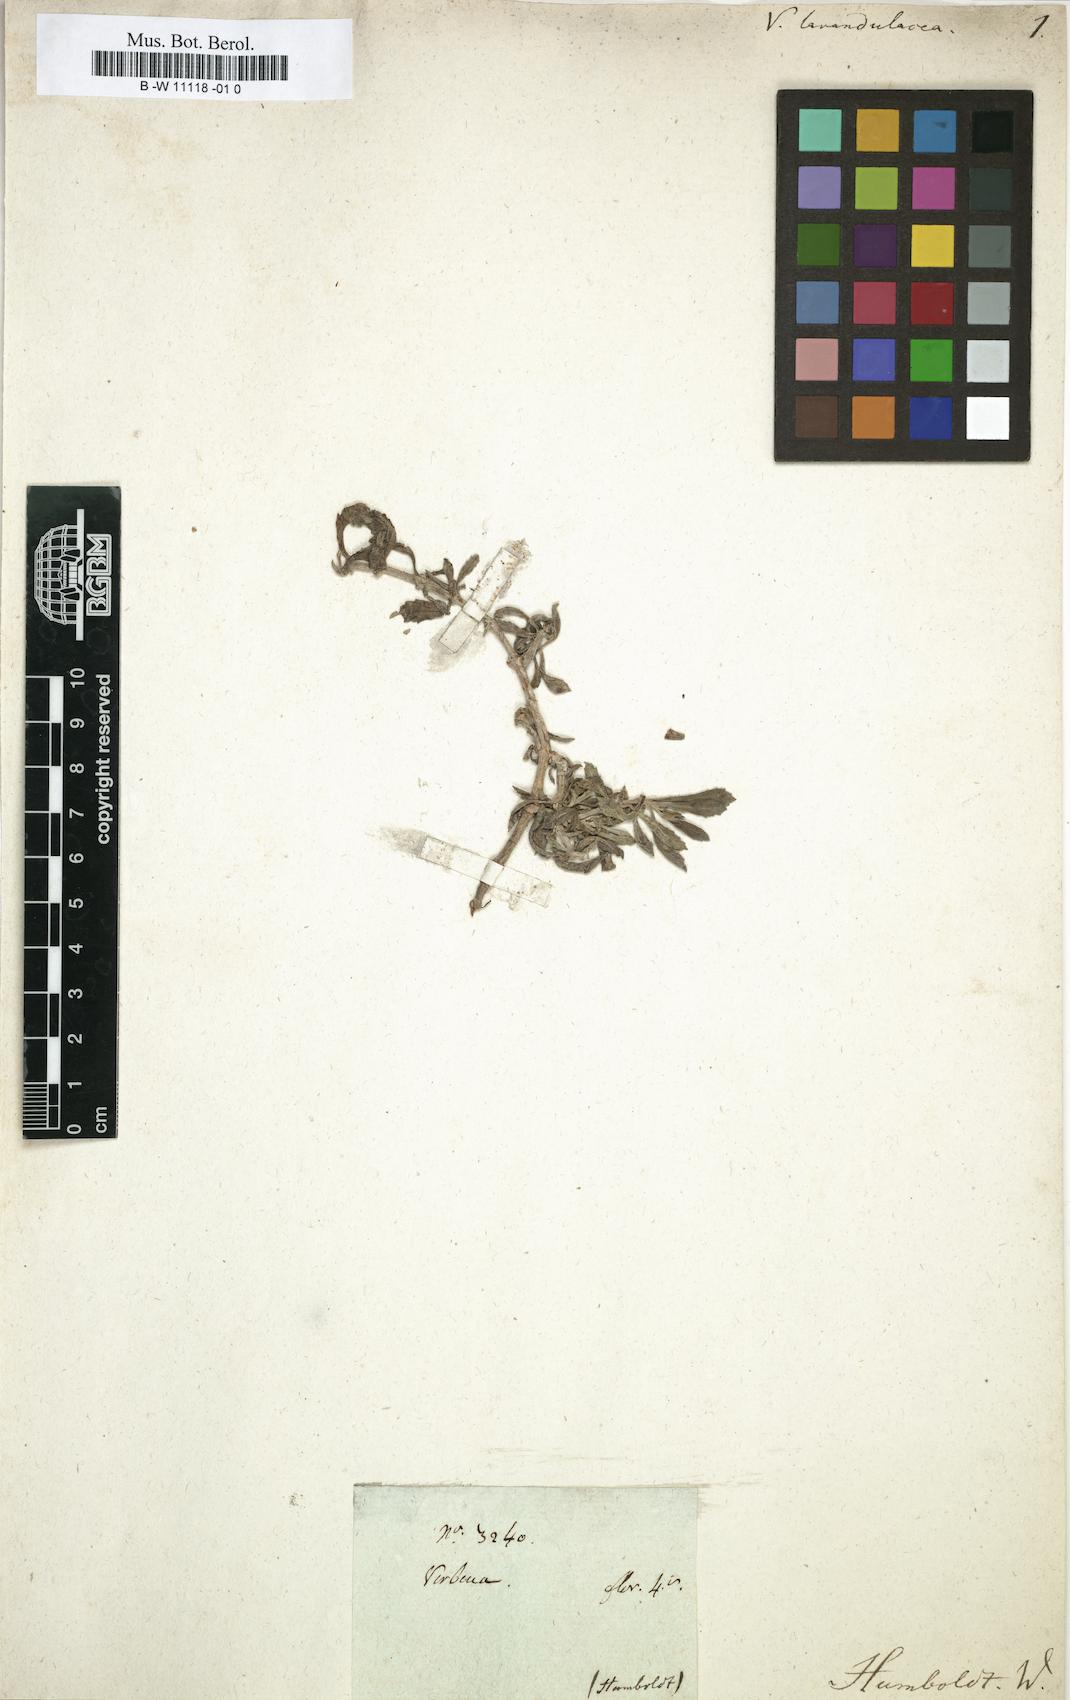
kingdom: Plantae
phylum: Tracheophyta
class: Magnoliopsida
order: Lamiales
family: Verbenaceae
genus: Verbena
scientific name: Verbena
